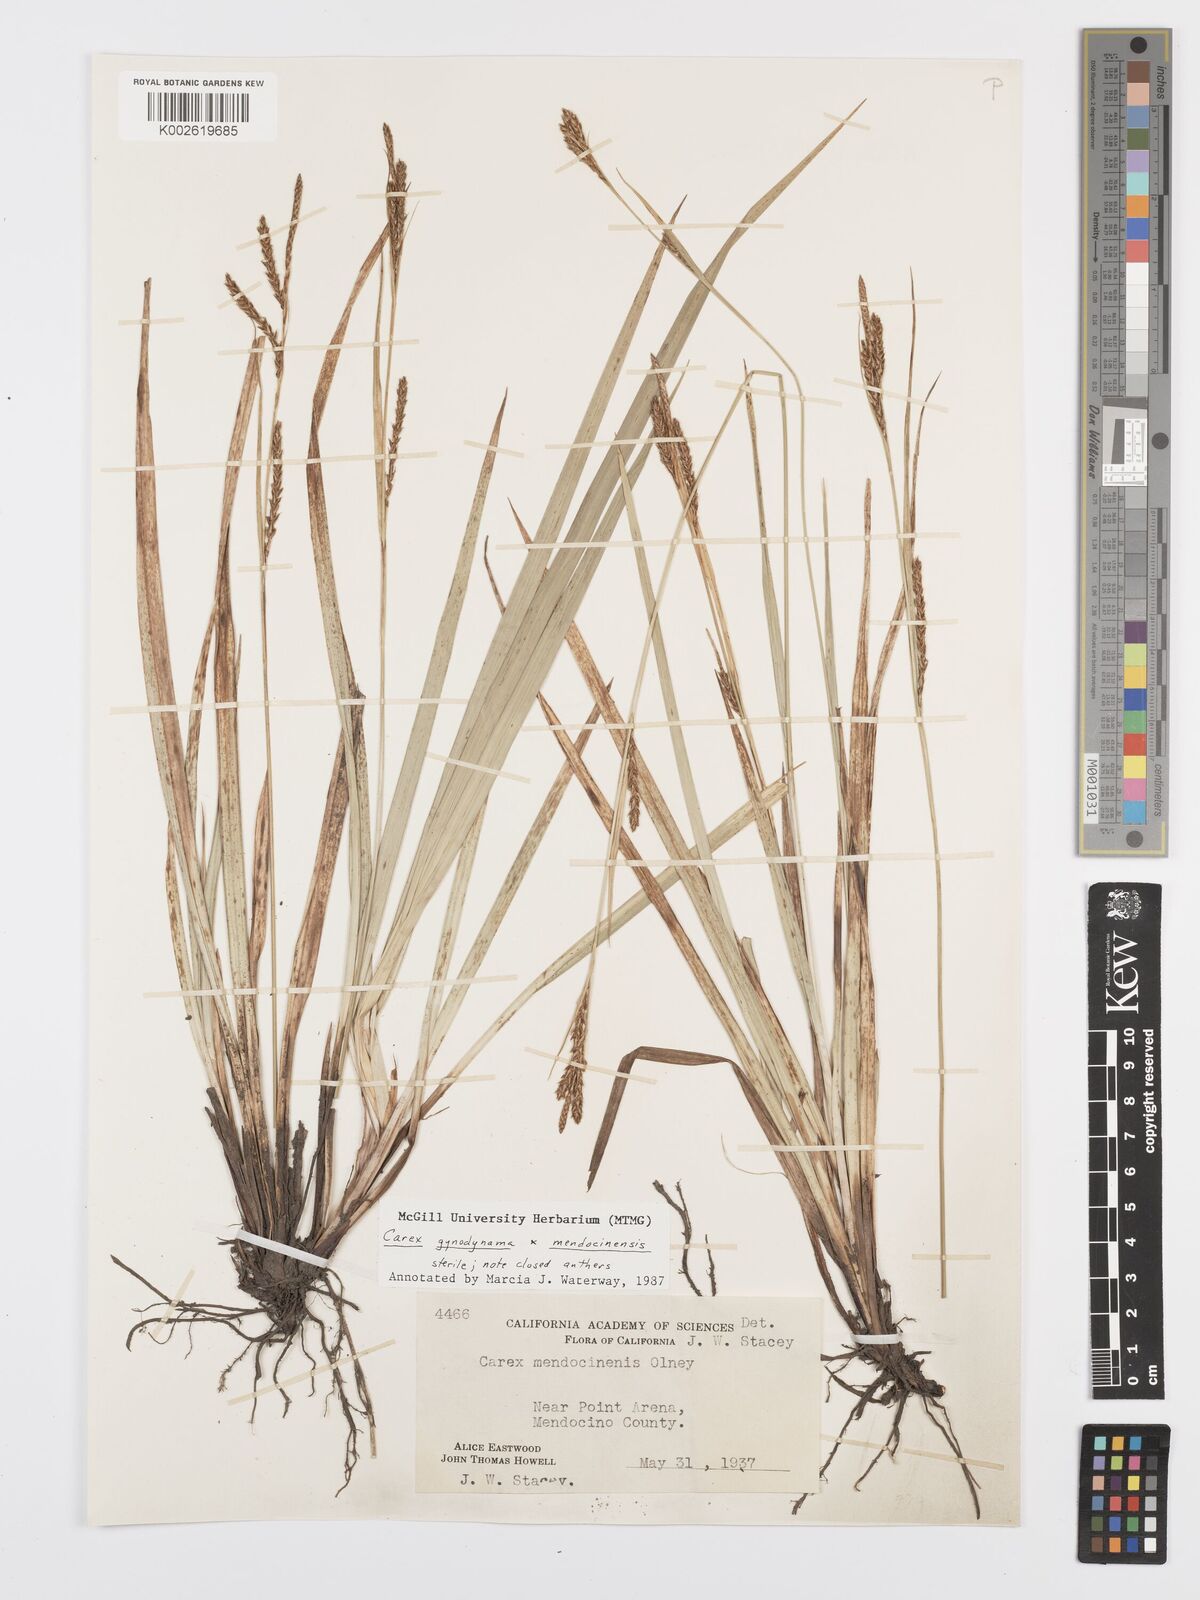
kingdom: Plantae
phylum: Tracheophyta
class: Liliopsida
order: Poales
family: Cyperaceae
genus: Carex
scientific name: Carex
